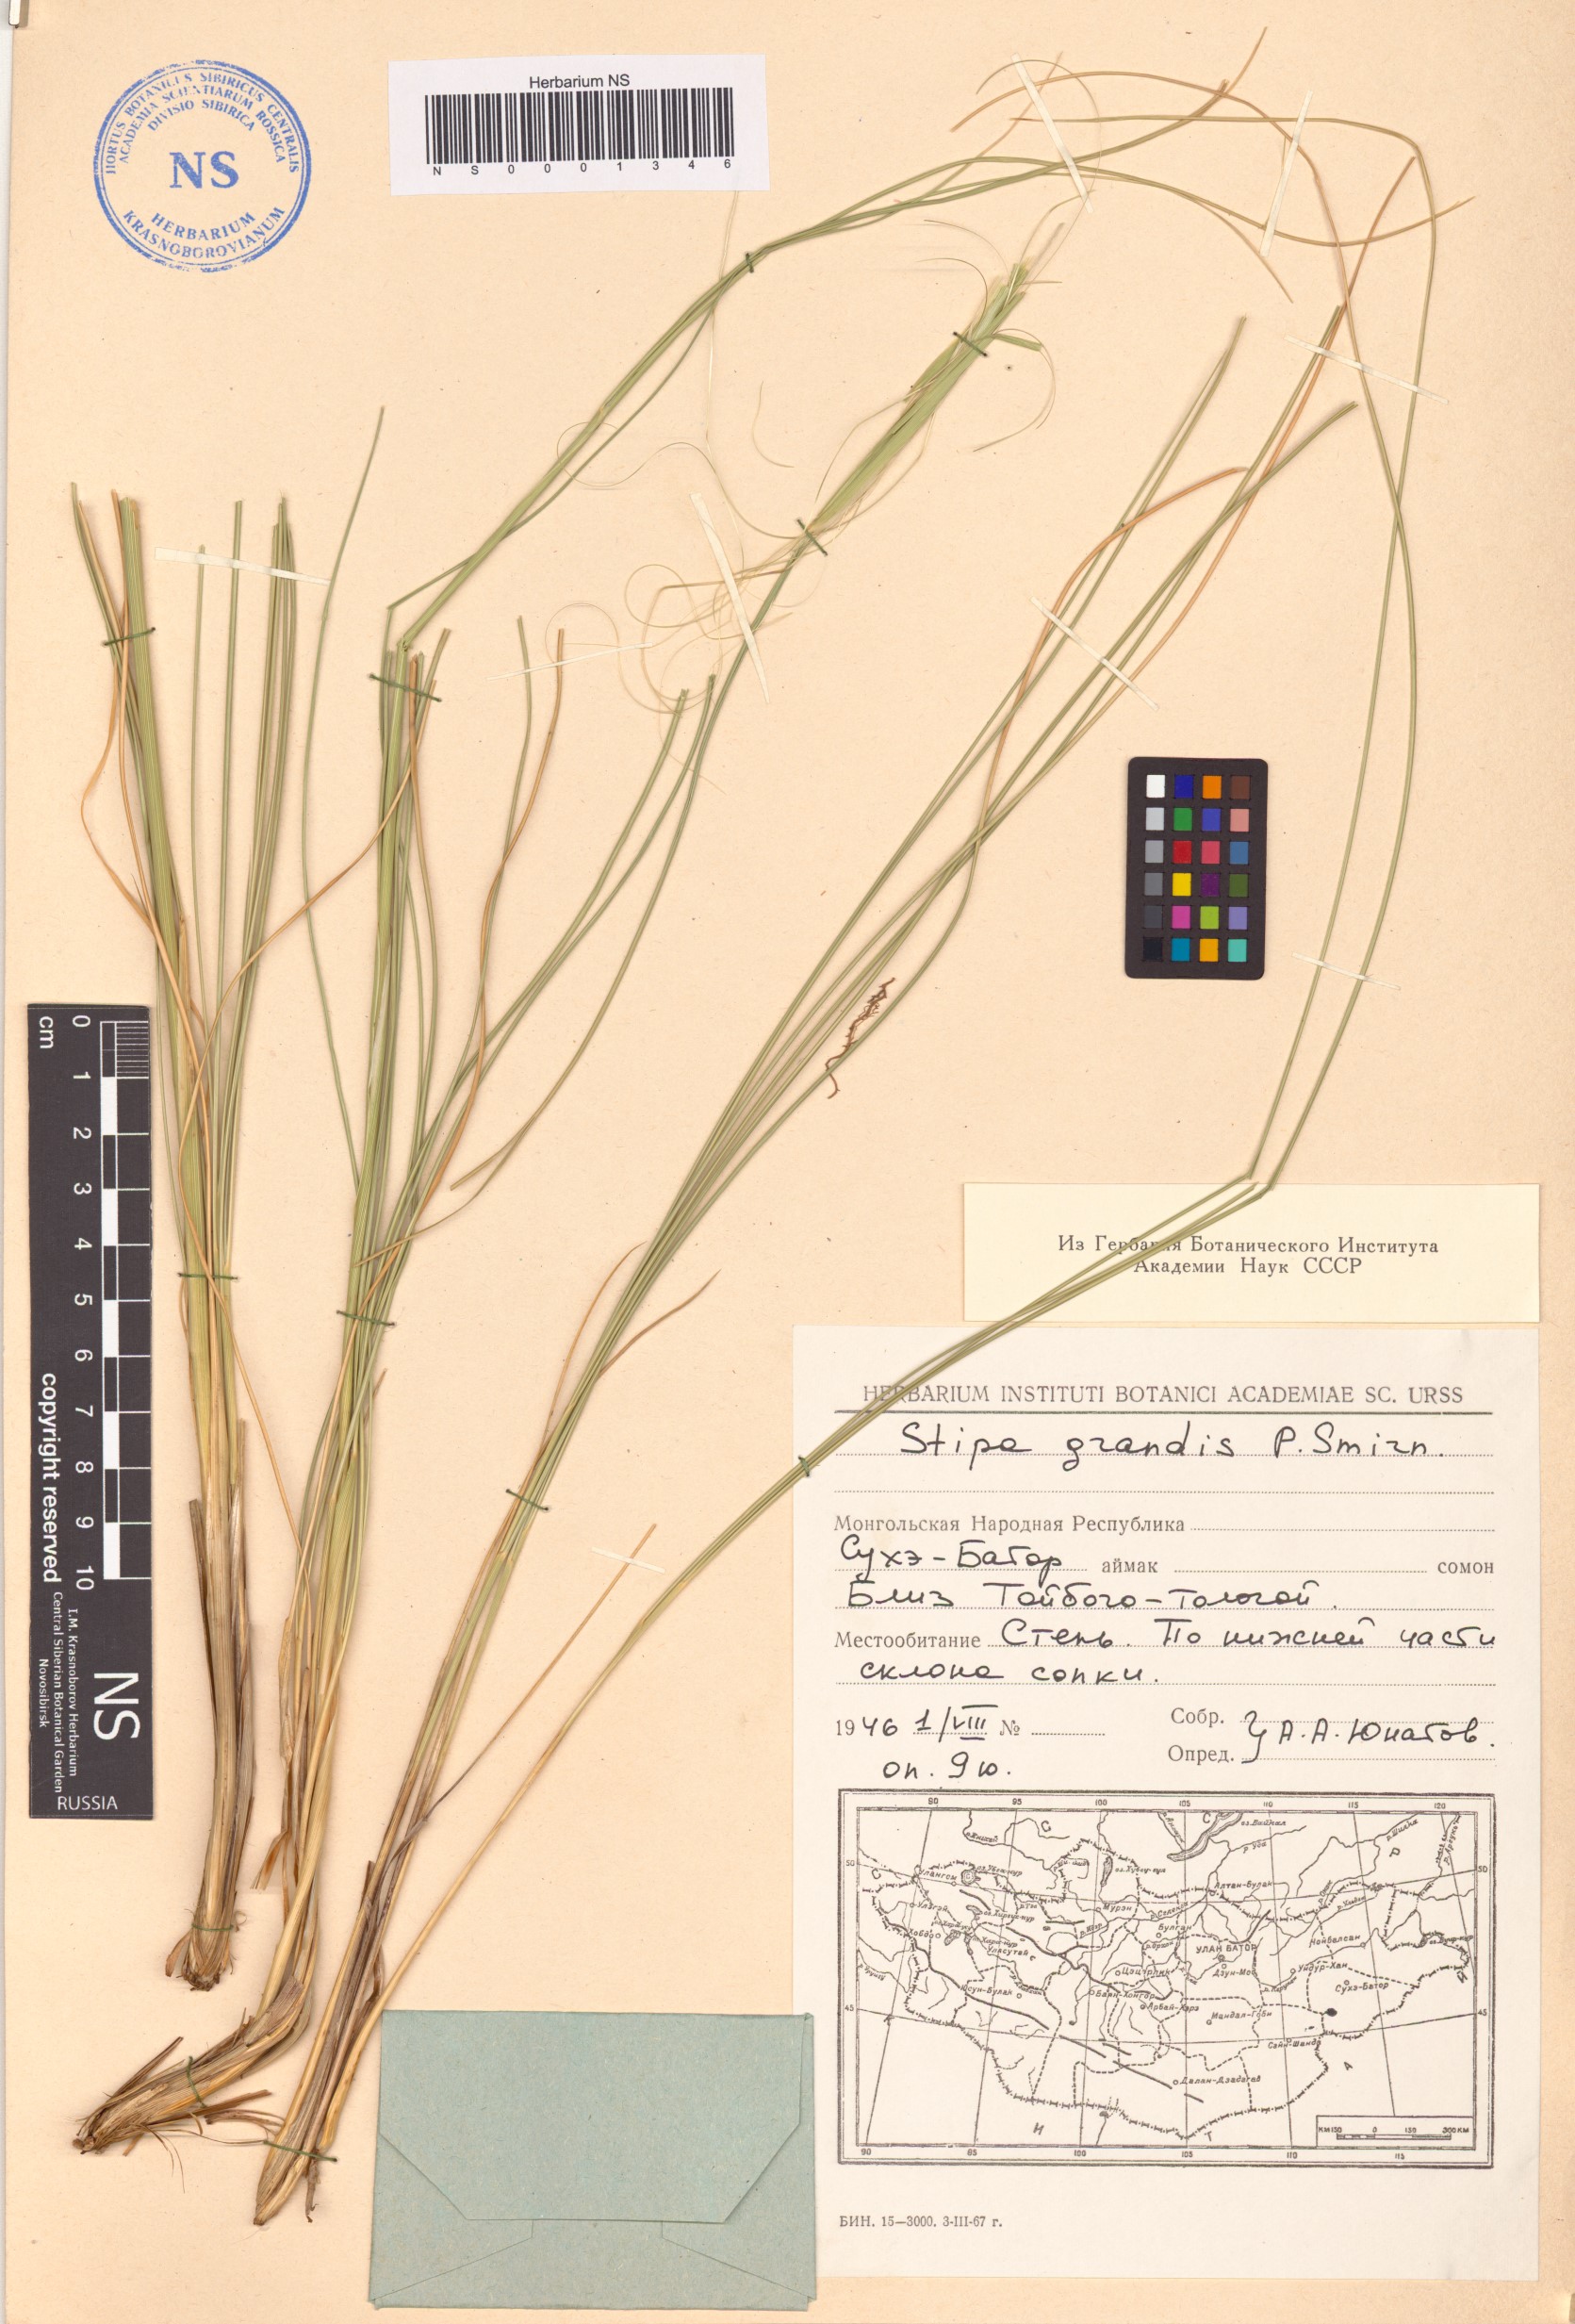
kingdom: Plantae
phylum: Tracheophyta
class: Liliopsida
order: Poales
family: Poaceae
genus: Stipa
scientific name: Stipa grandis
